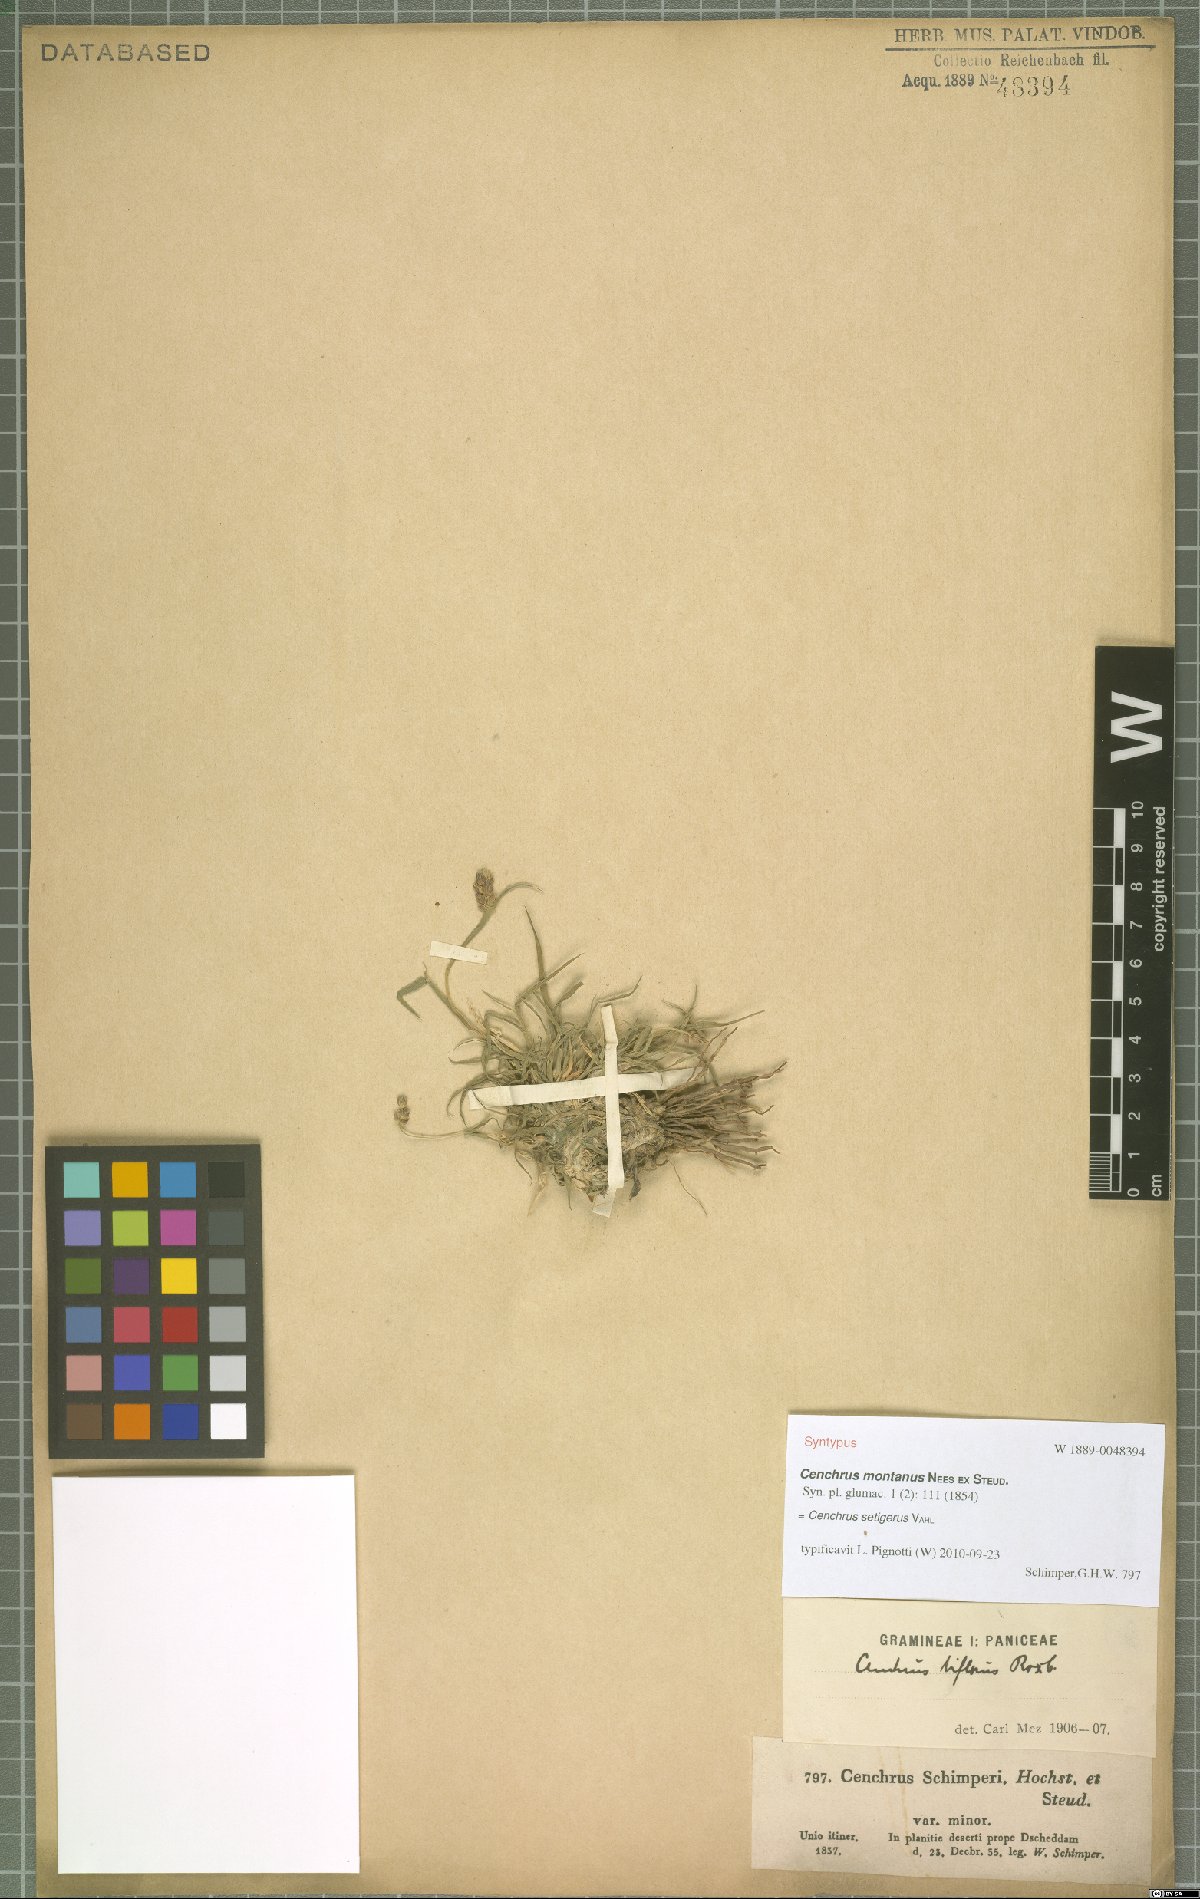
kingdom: Plantae
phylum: Tracheophyta
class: Liliopsida
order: Poales
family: Poaceae
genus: Cenchrus
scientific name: Cenchrus setigerus
